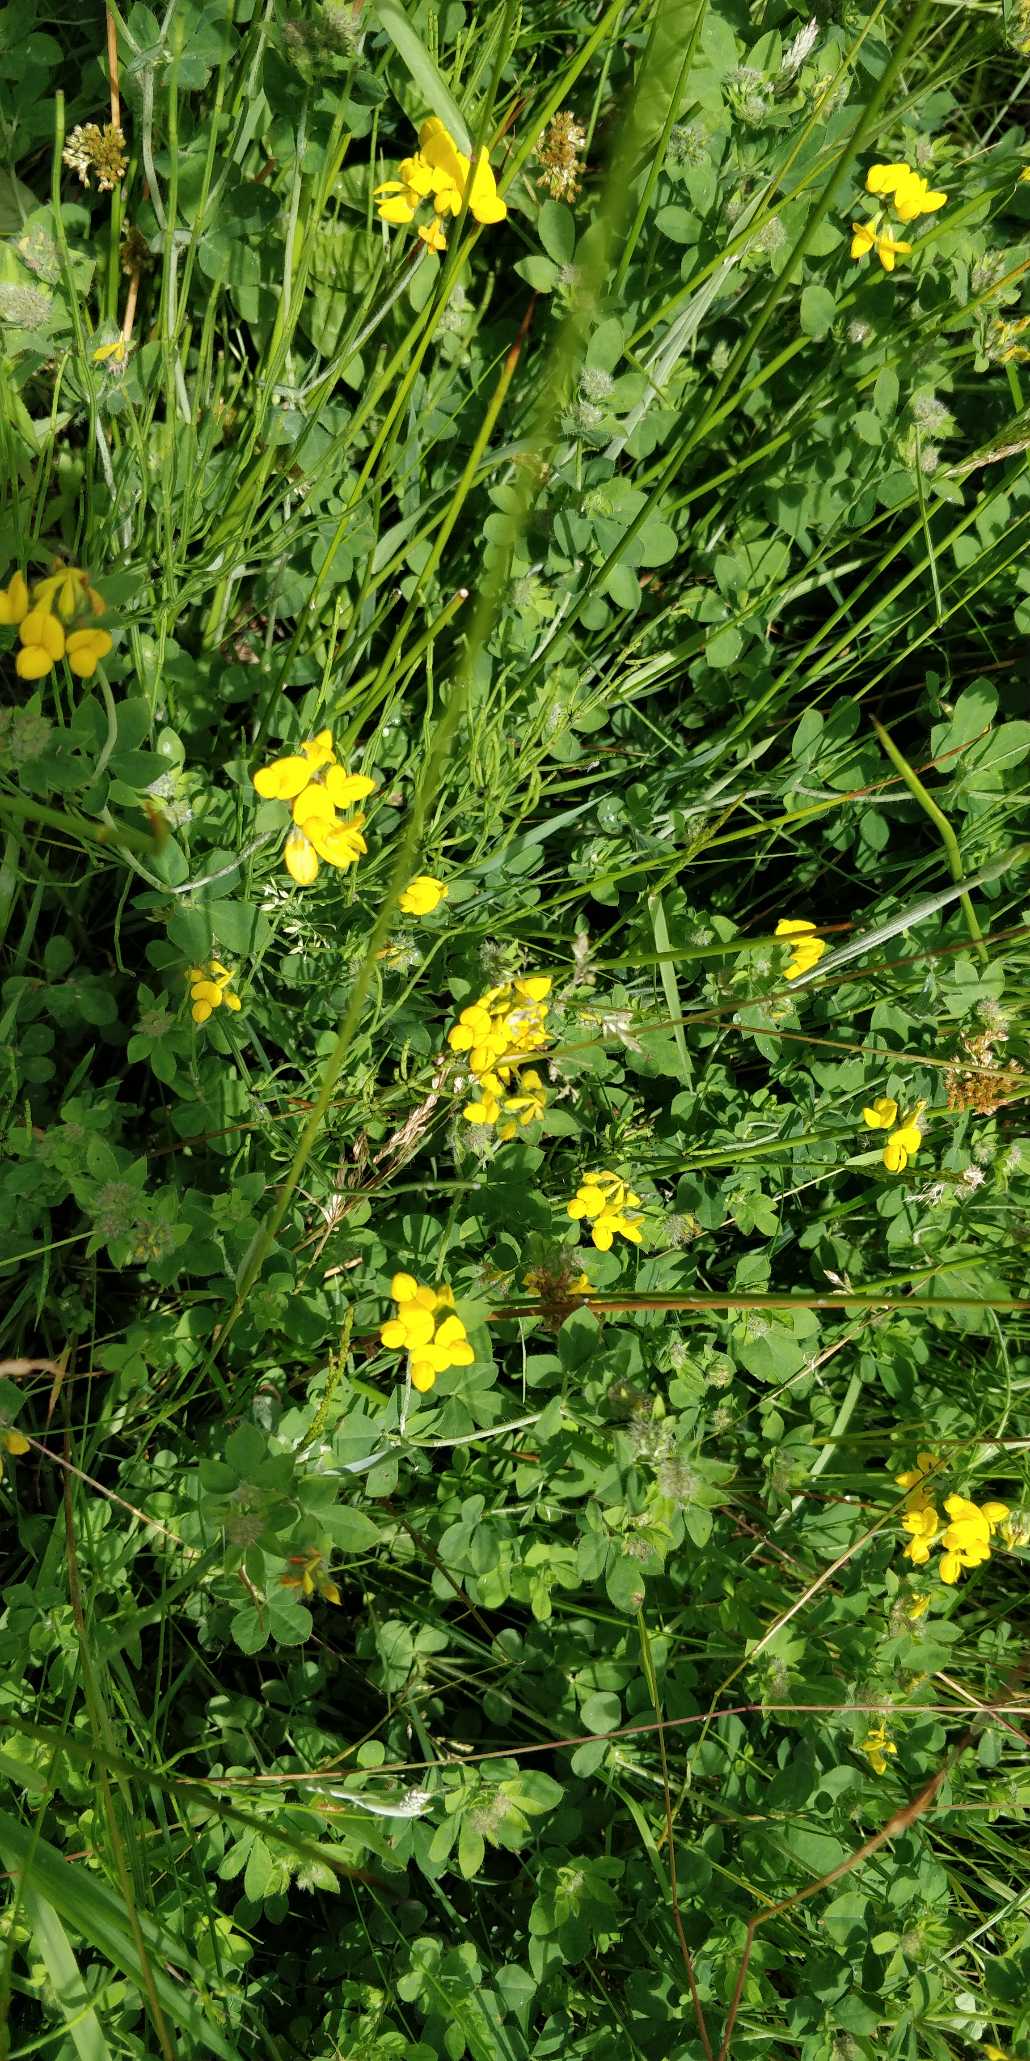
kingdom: Plantae
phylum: Tracheophyta
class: Magnoliopsida
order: Fabales
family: Fabaceae
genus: Lotus
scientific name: Lotus corniculatus
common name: Foder-kællingetand
